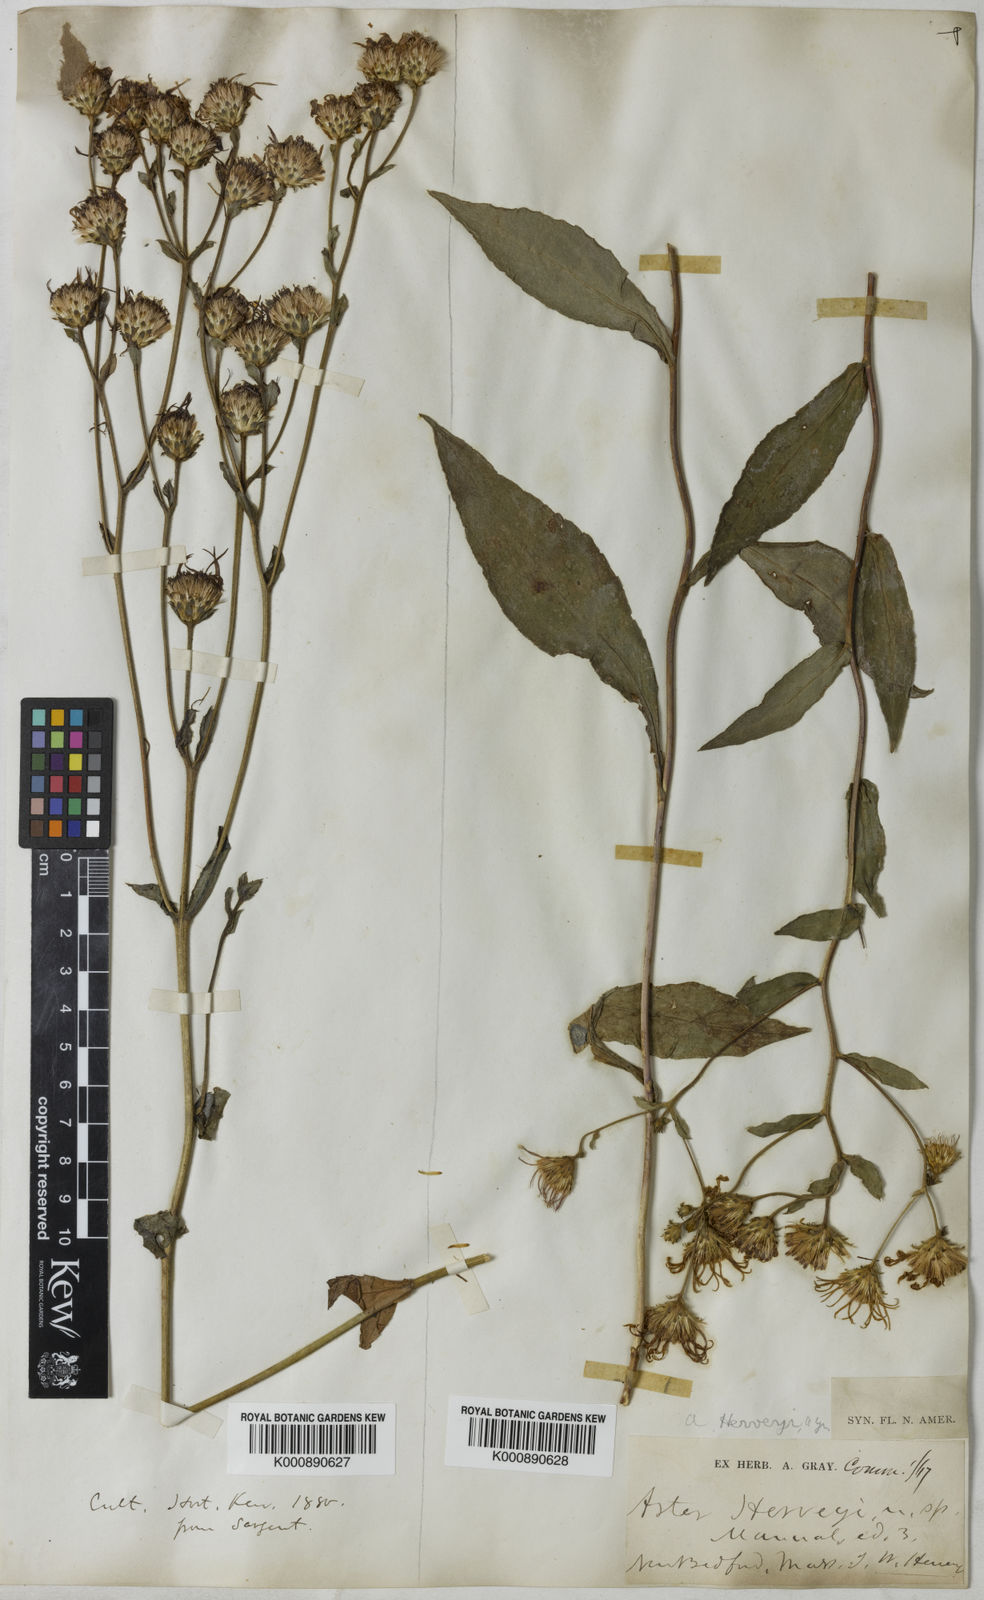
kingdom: Plantae
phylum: Tracheophyta
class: Magnoliopsida
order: Asterales
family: Asteraceae
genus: Eurybia
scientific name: Eurybia herveyi
